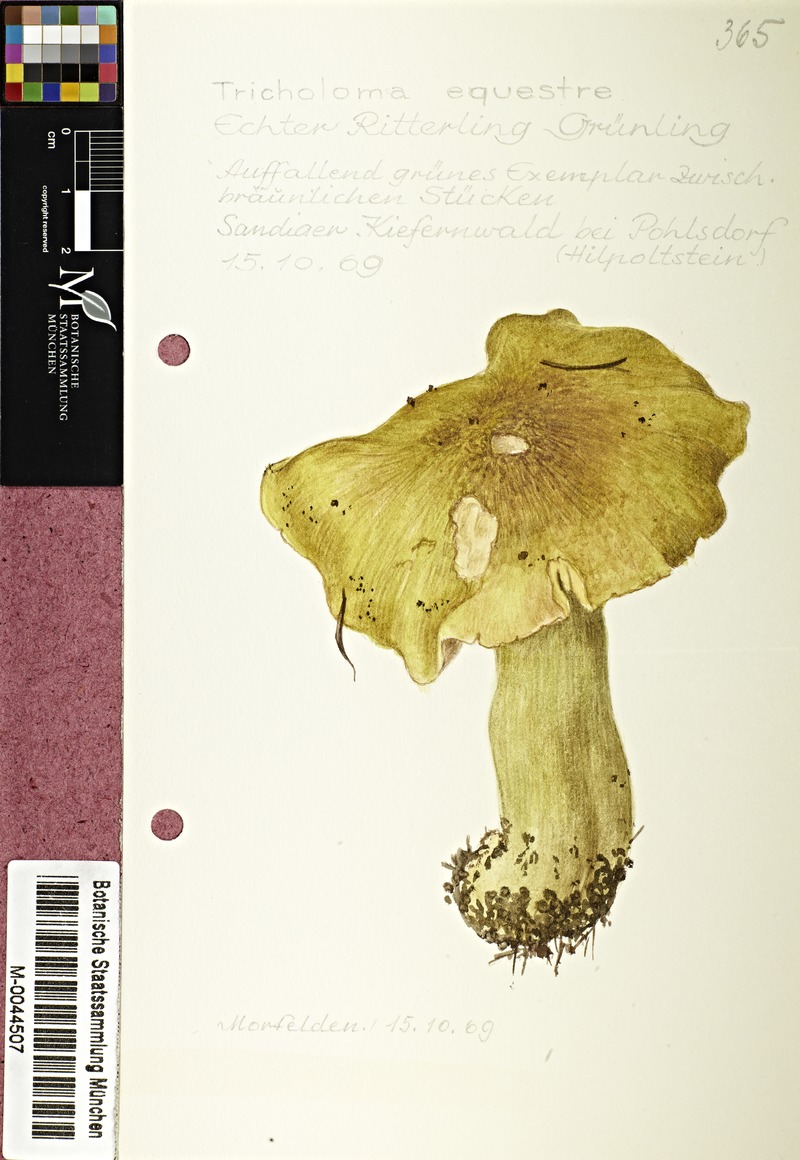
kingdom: Fungi
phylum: Basidiomycota
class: Agaricomycetes
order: Agaricales
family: Tricholomataceae
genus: Tricholoma
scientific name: Tricholoma equestre
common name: Yellow knight
